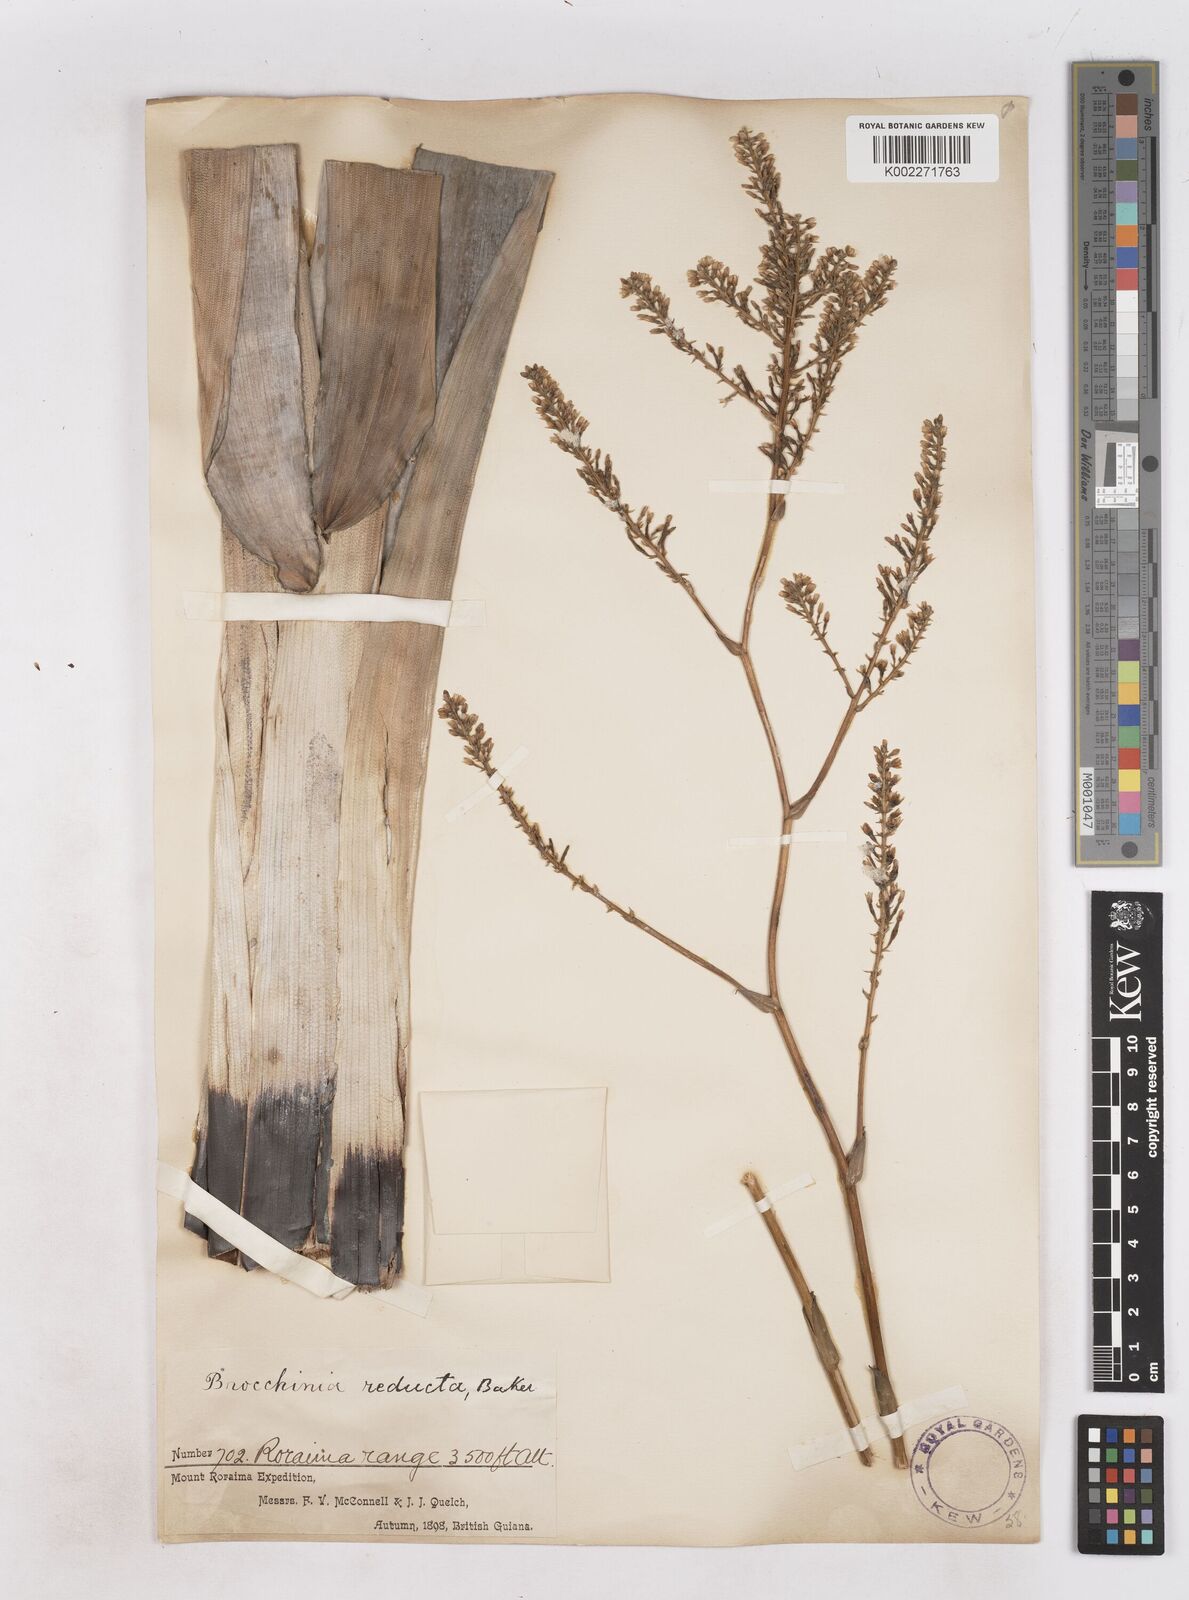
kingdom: Plantae
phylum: Tracheophyta
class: Liliopsida
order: Poales
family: Bromeliaceae
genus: Brocchinia
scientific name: Brocchinia reducta
